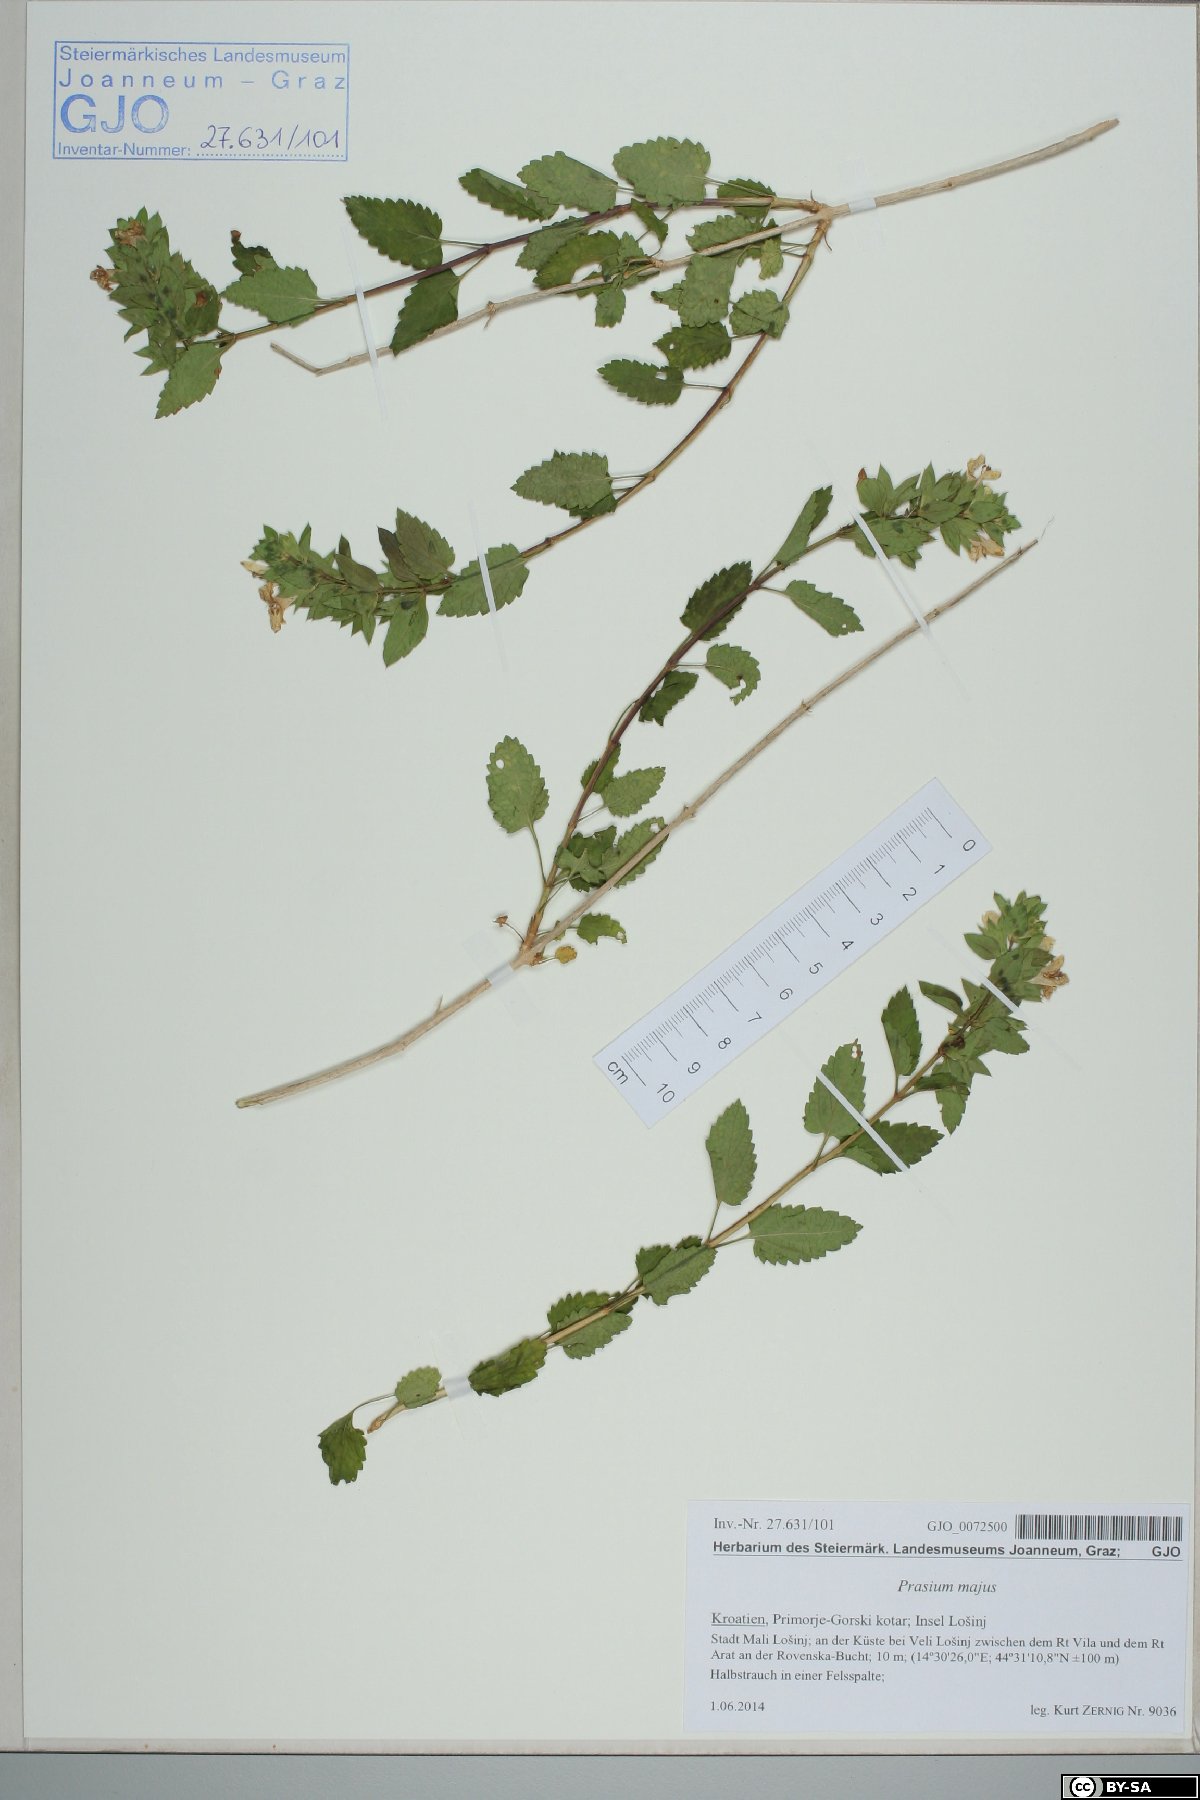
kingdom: Plantae
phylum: Tracheophyta
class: Magnoliopsida
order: Lamiales
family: Lamiaceae
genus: Prasium
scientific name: Prasium majus
